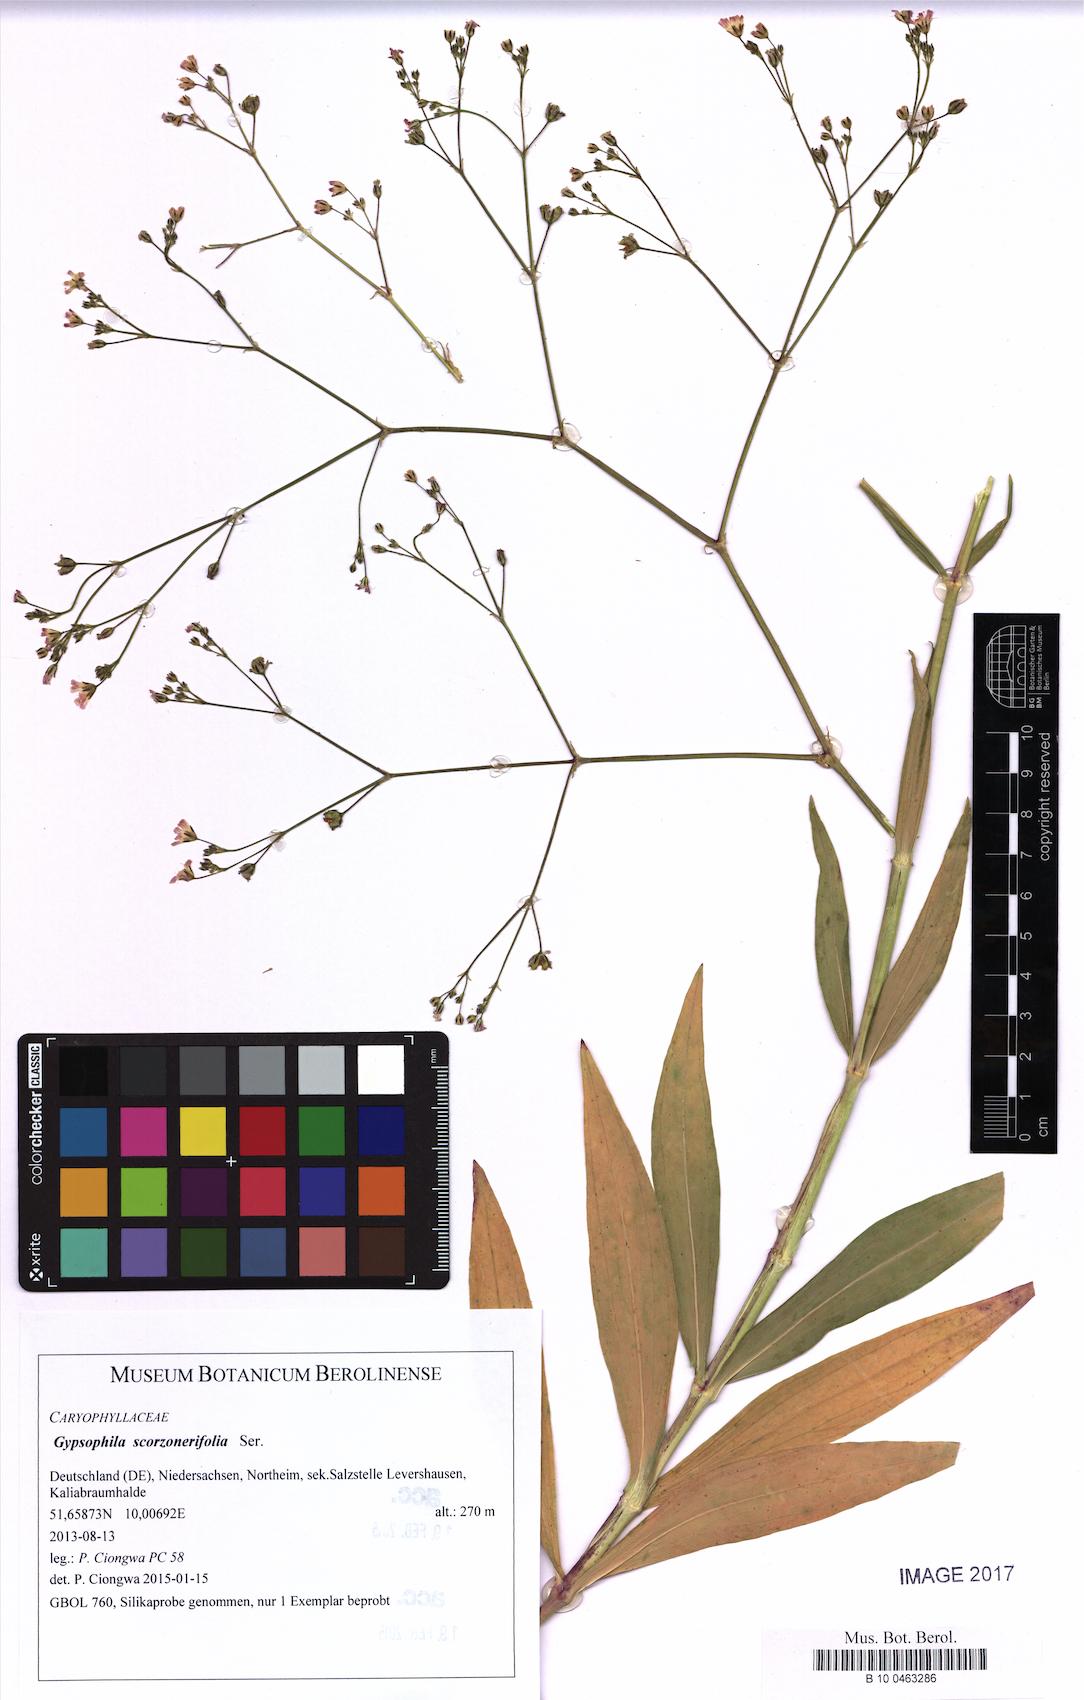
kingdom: Plantae
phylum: Tracheophyta
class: Magnoliopsida
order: Caryophyllales
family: Caryophyllaceae
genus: Gypsophila
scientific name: Gypsophila scorzonerifolia
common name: Garden baby's-breath
